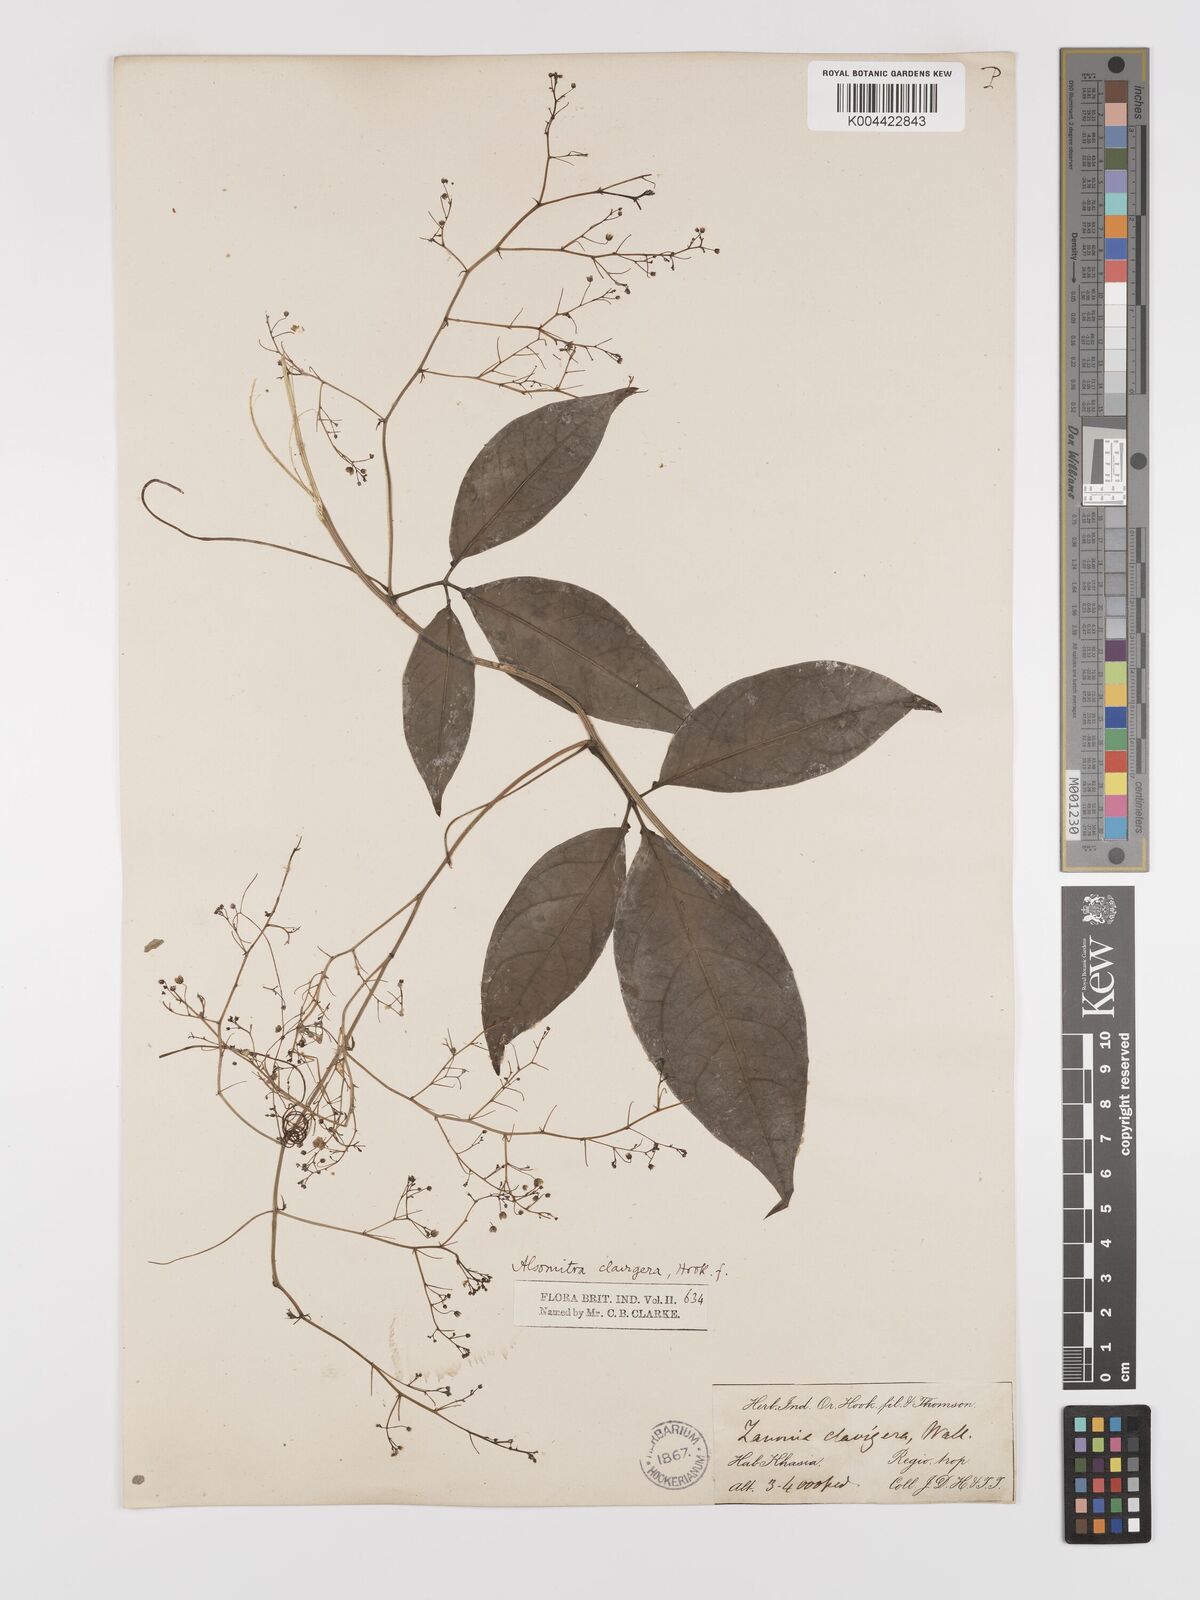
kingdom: Plantae
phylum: Tracheophyta
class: Magnoliopsida
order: Cucurbitales
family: Cucurbitaceae
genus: Neoalsomitra
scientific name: Neoalsomitra
